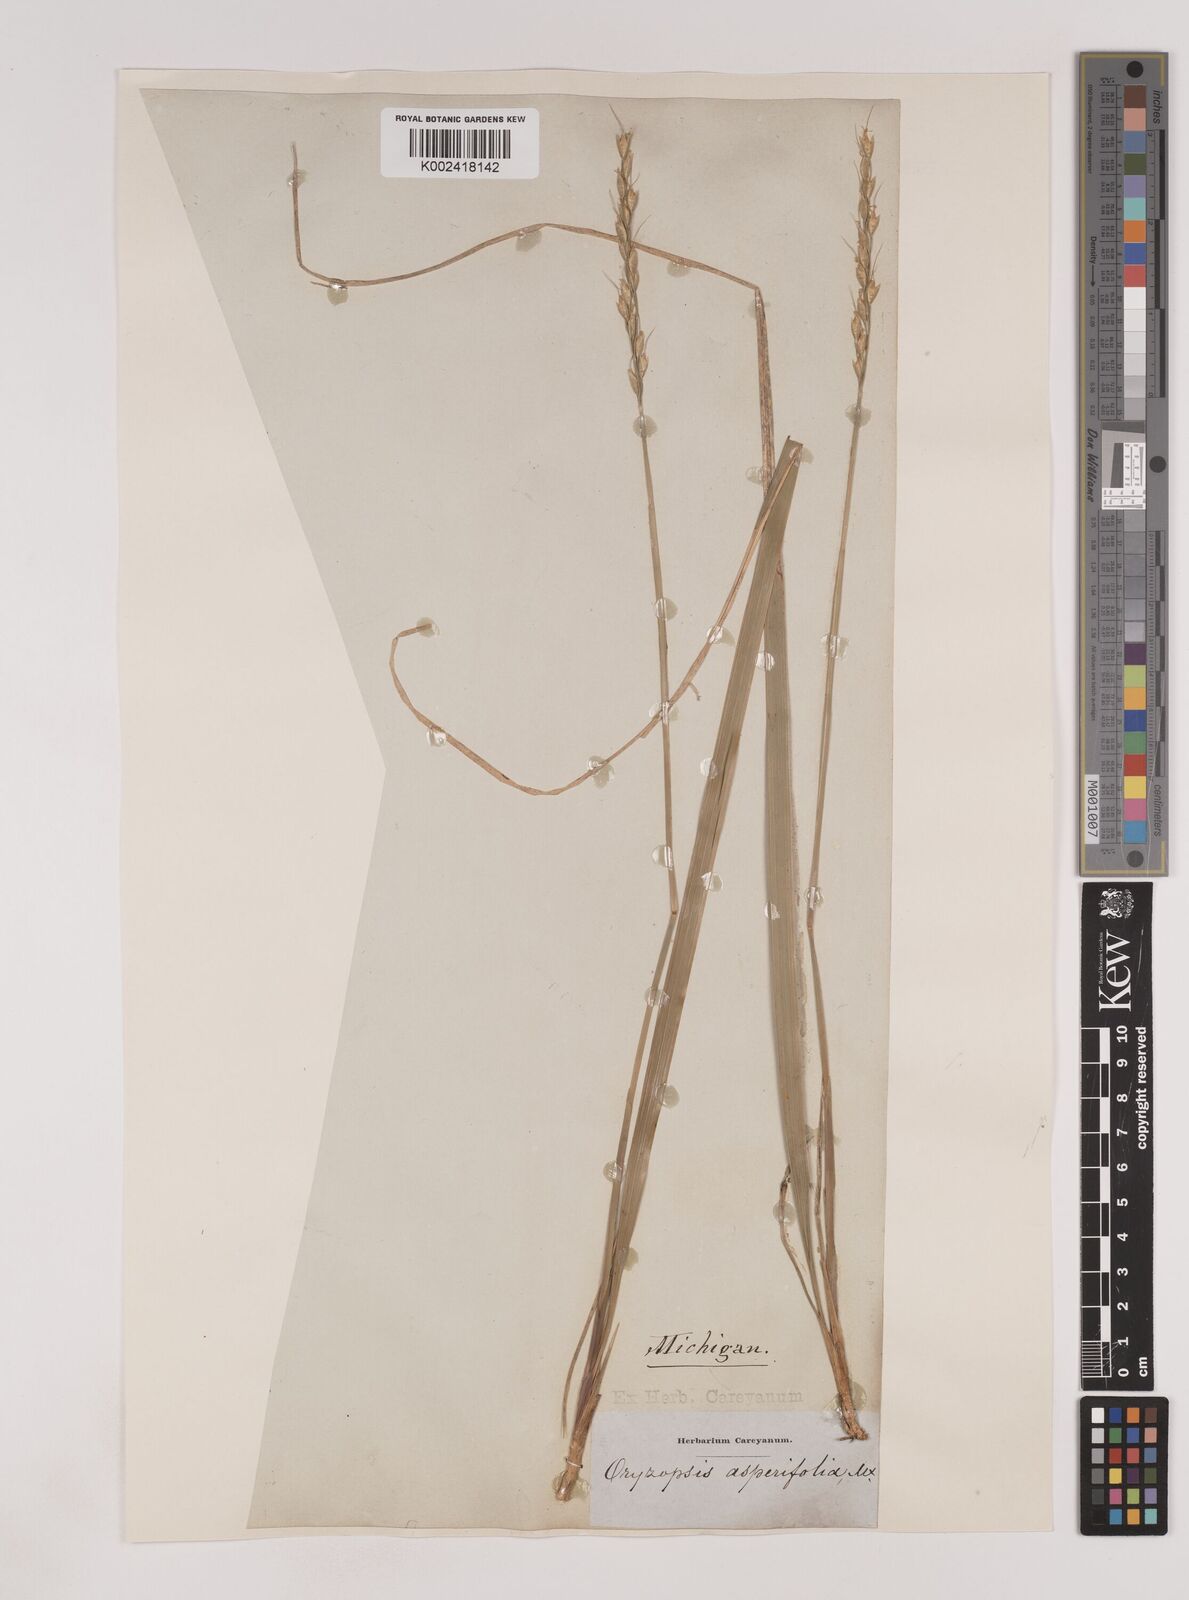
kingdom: Plantae
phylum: Tracheophyta
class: Liliopsida
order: Poales
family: Poaceae
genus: Oryzopsis
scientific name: Oryzopsis asperifolia
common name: Rough-leaved mountain rice
